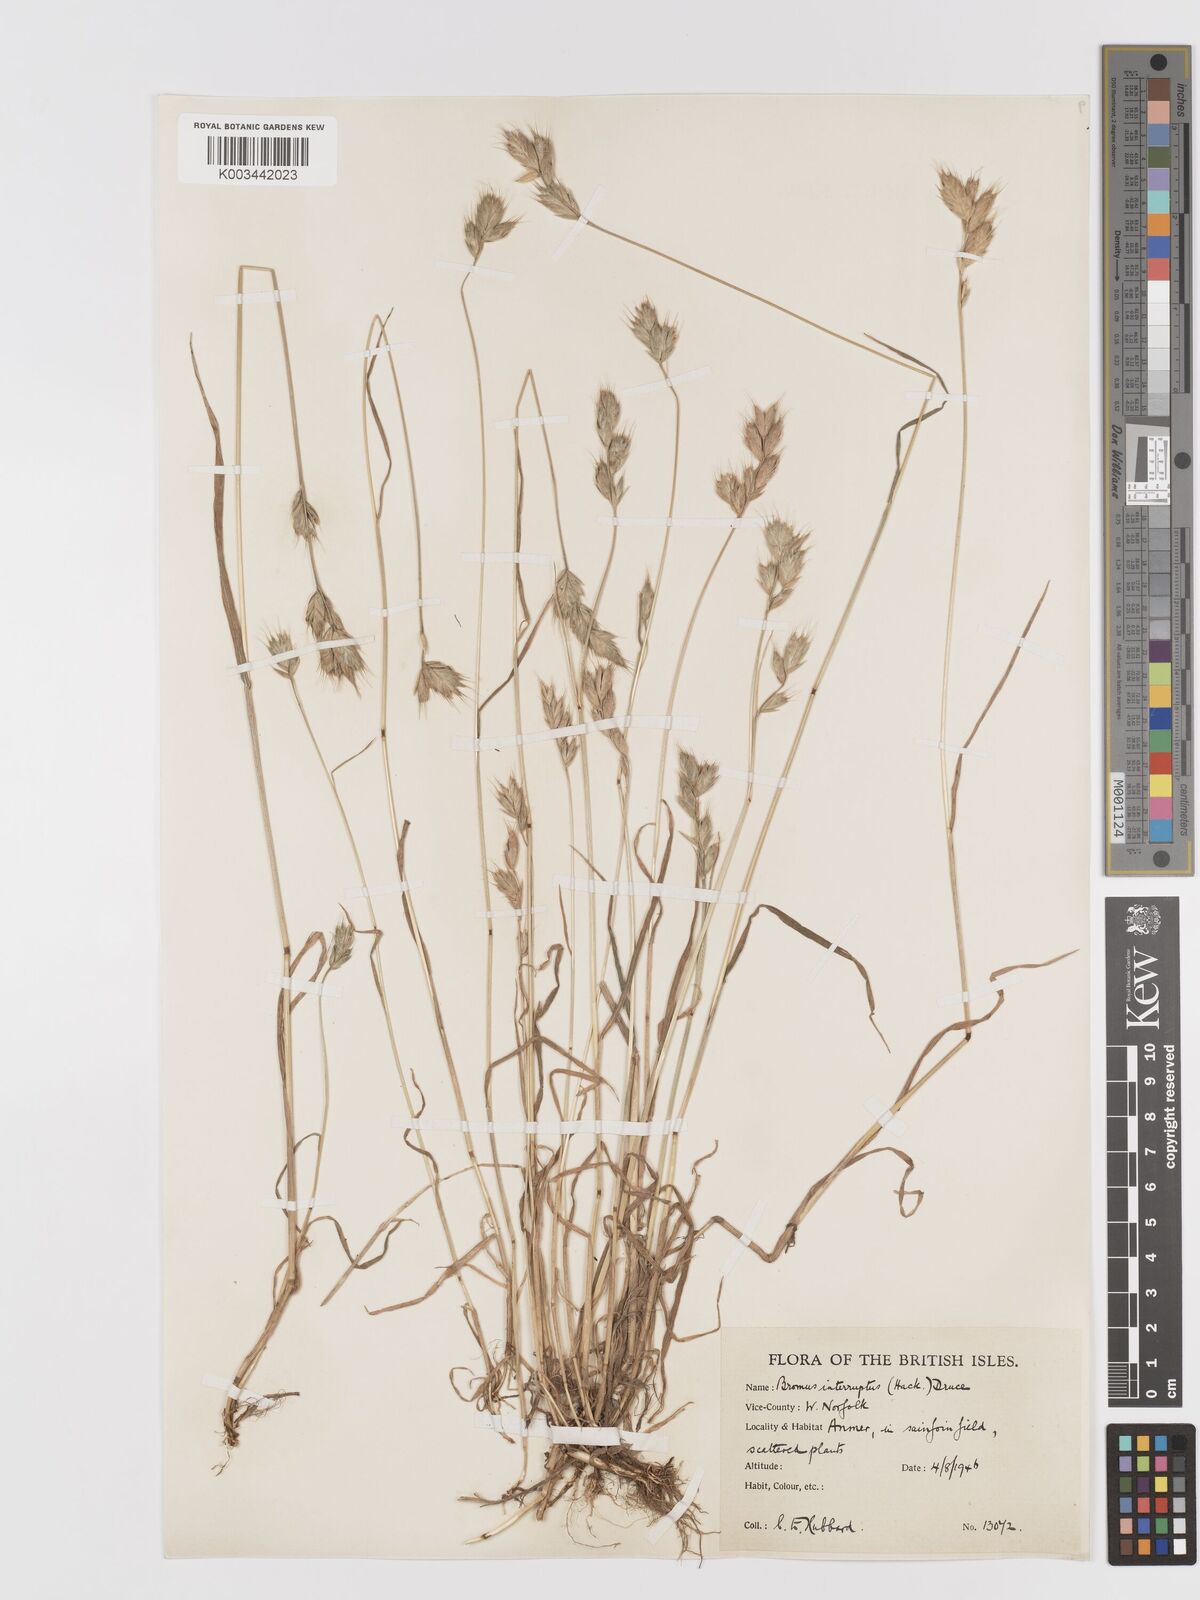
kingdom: Plantae
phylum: Tracheophyta
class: Liliopsida
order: Poales
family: Poaceae
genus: Bromus
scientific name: Bromus interruptus
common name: Interrupted brome
